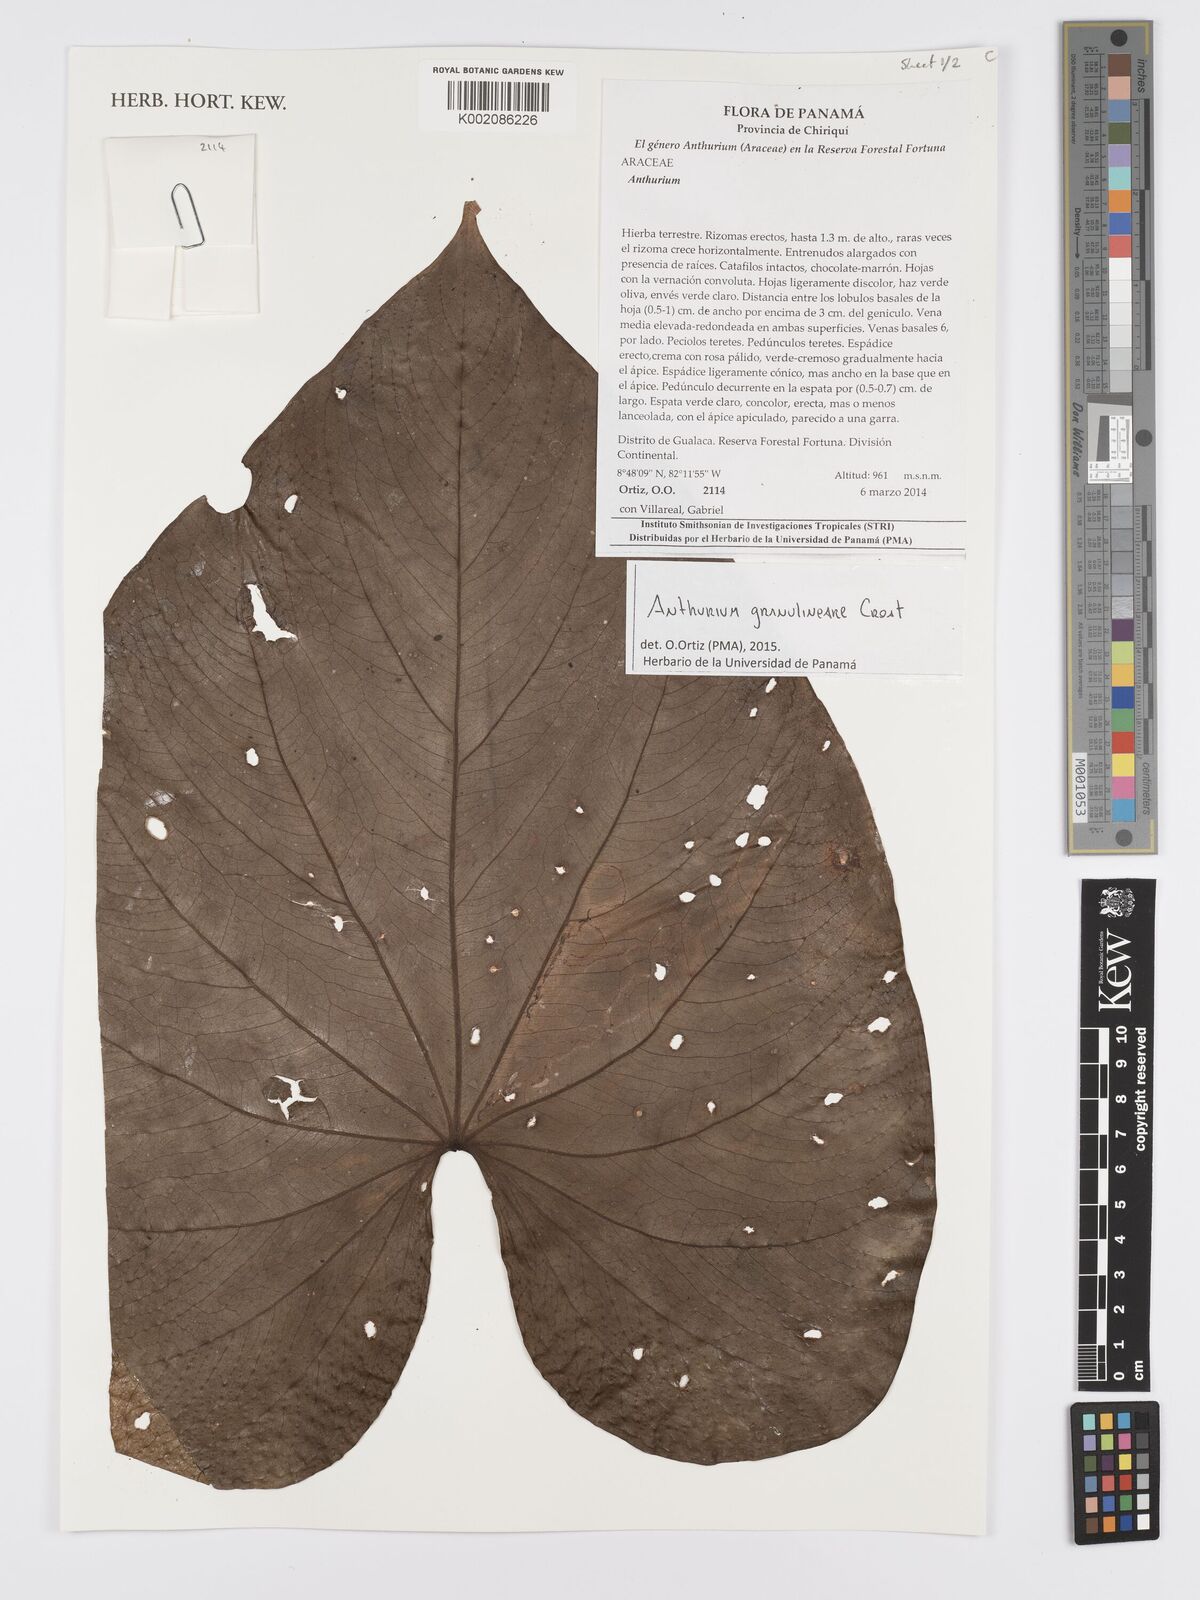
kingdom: Plantae
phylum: Tracheophyta
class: Liliopsida
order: Alismatales
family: Araceae
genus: Anthurium
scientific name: Anthurium granulineare
